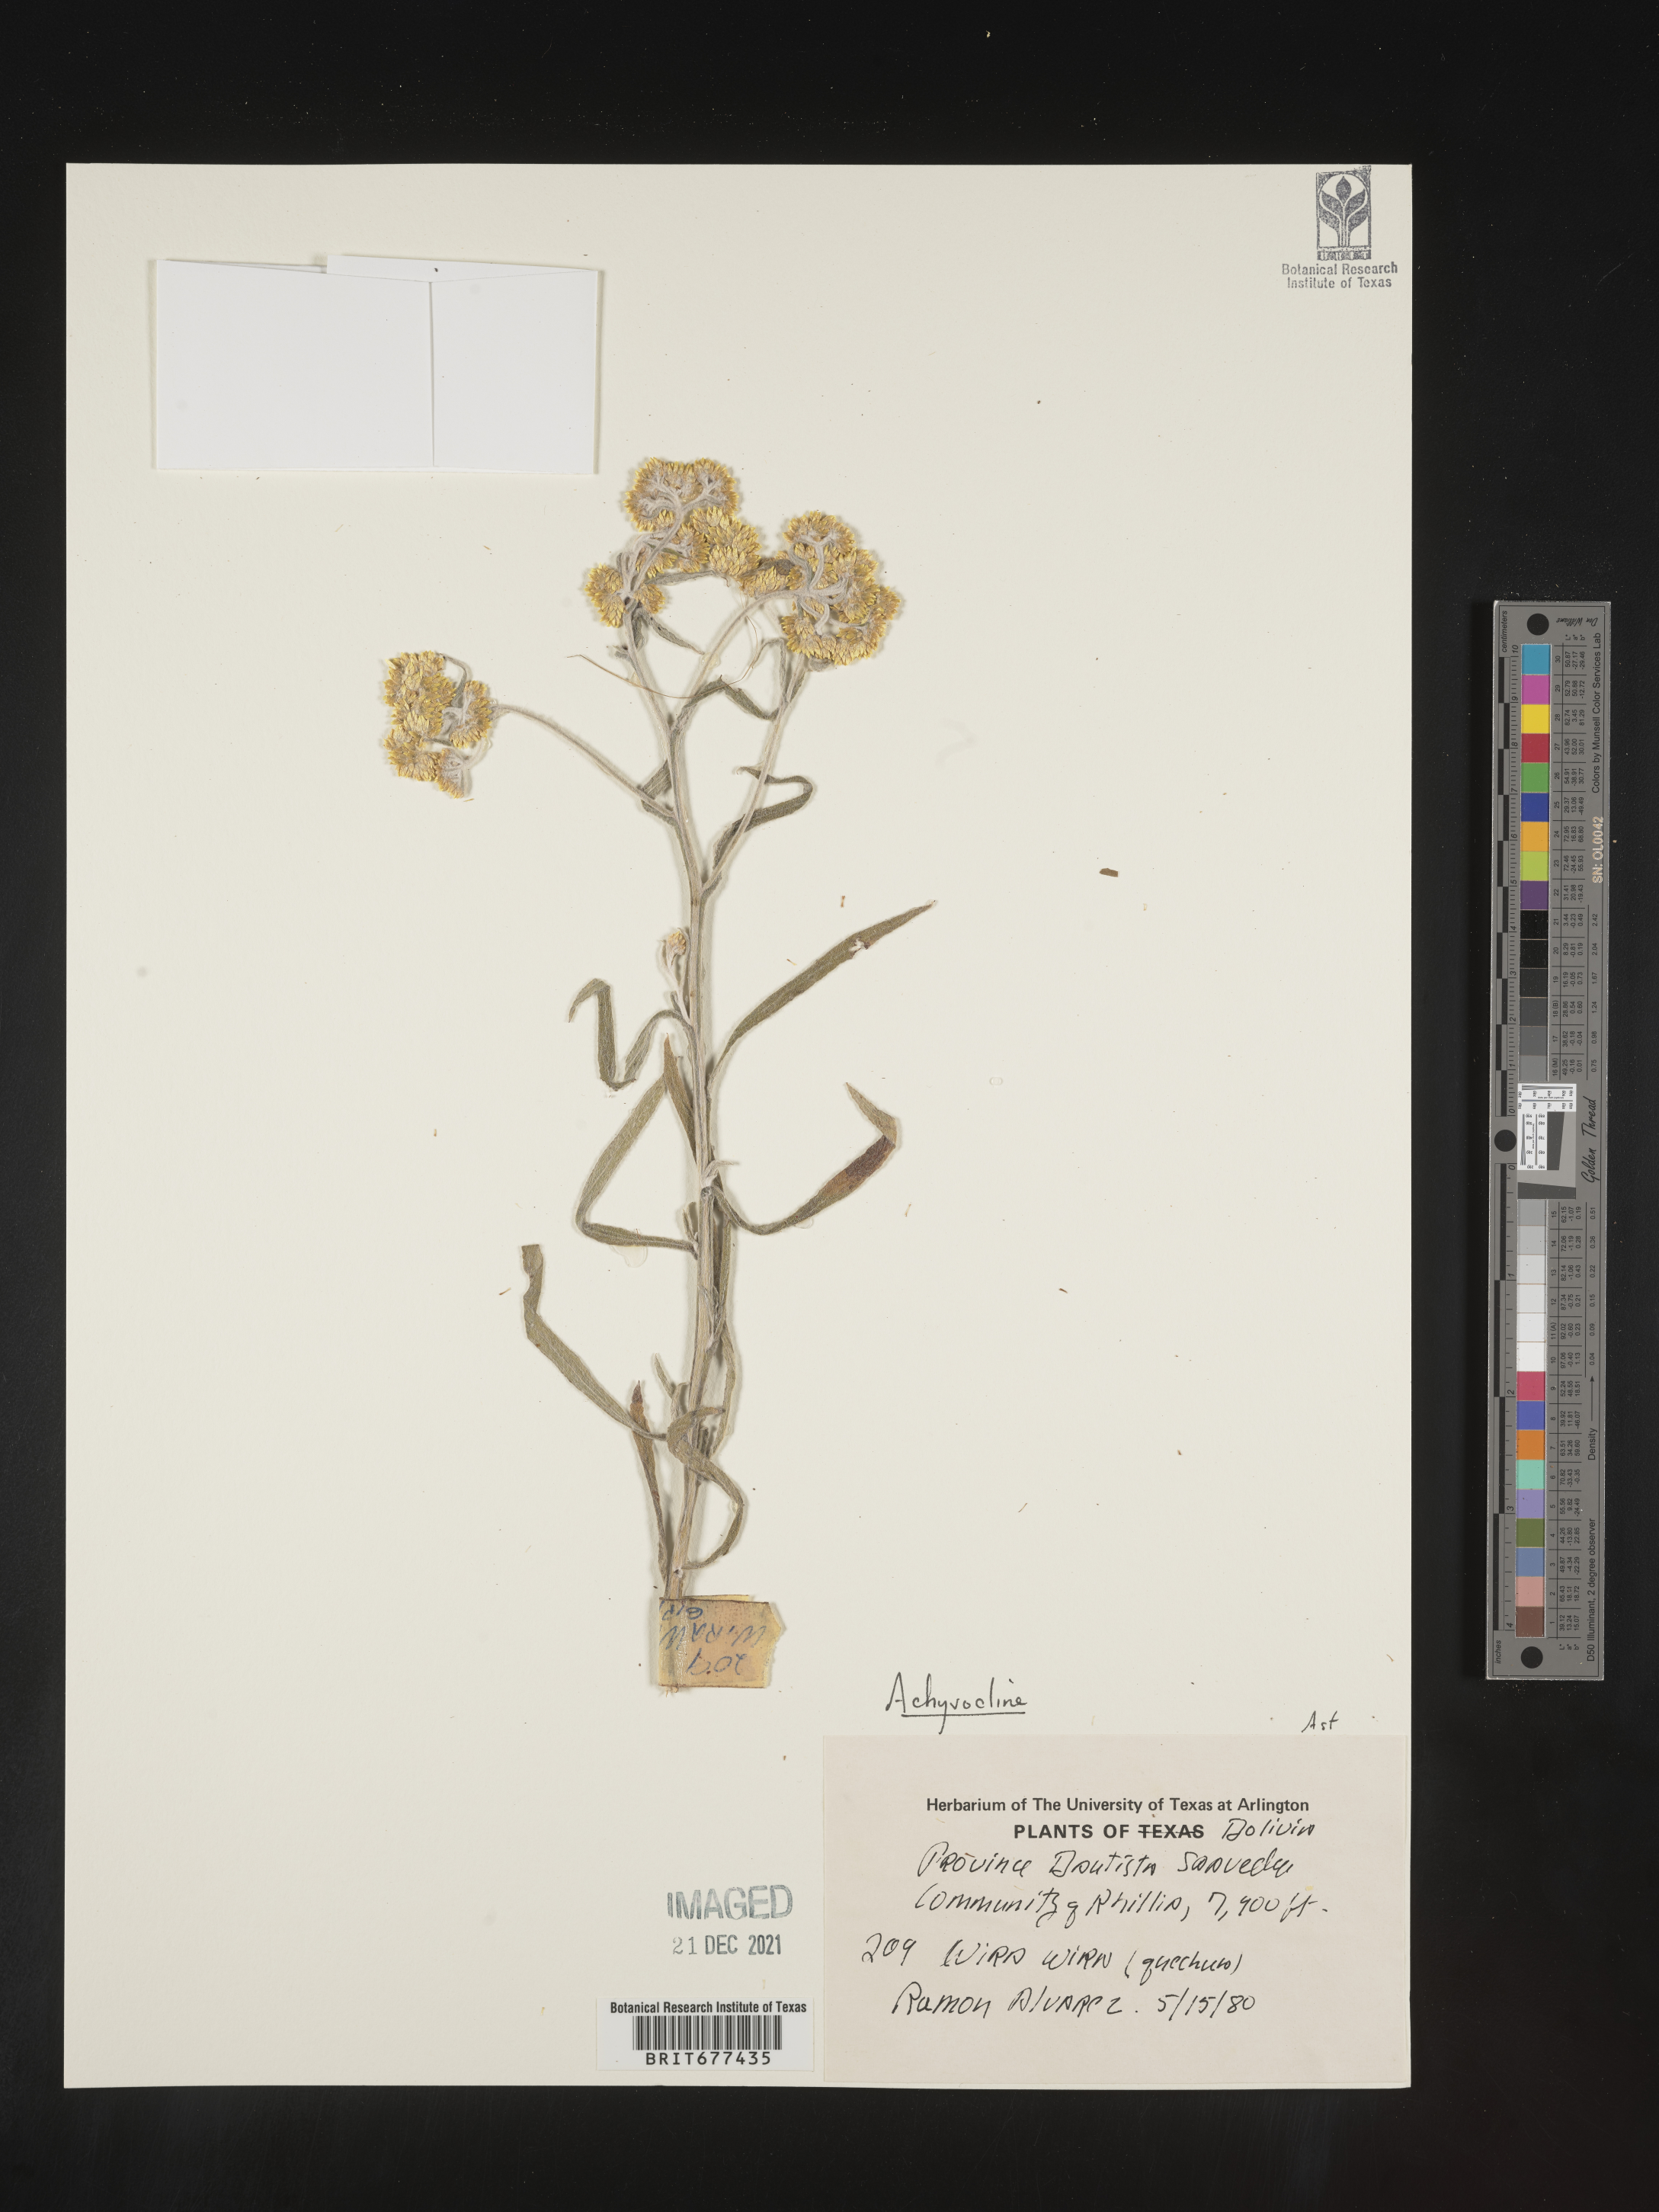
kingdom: Plantae
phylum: Tracheophyta
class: Magnoliopsida
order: Asterales
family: Asteraceae
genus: Achyrocline
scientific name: Achyrocline
